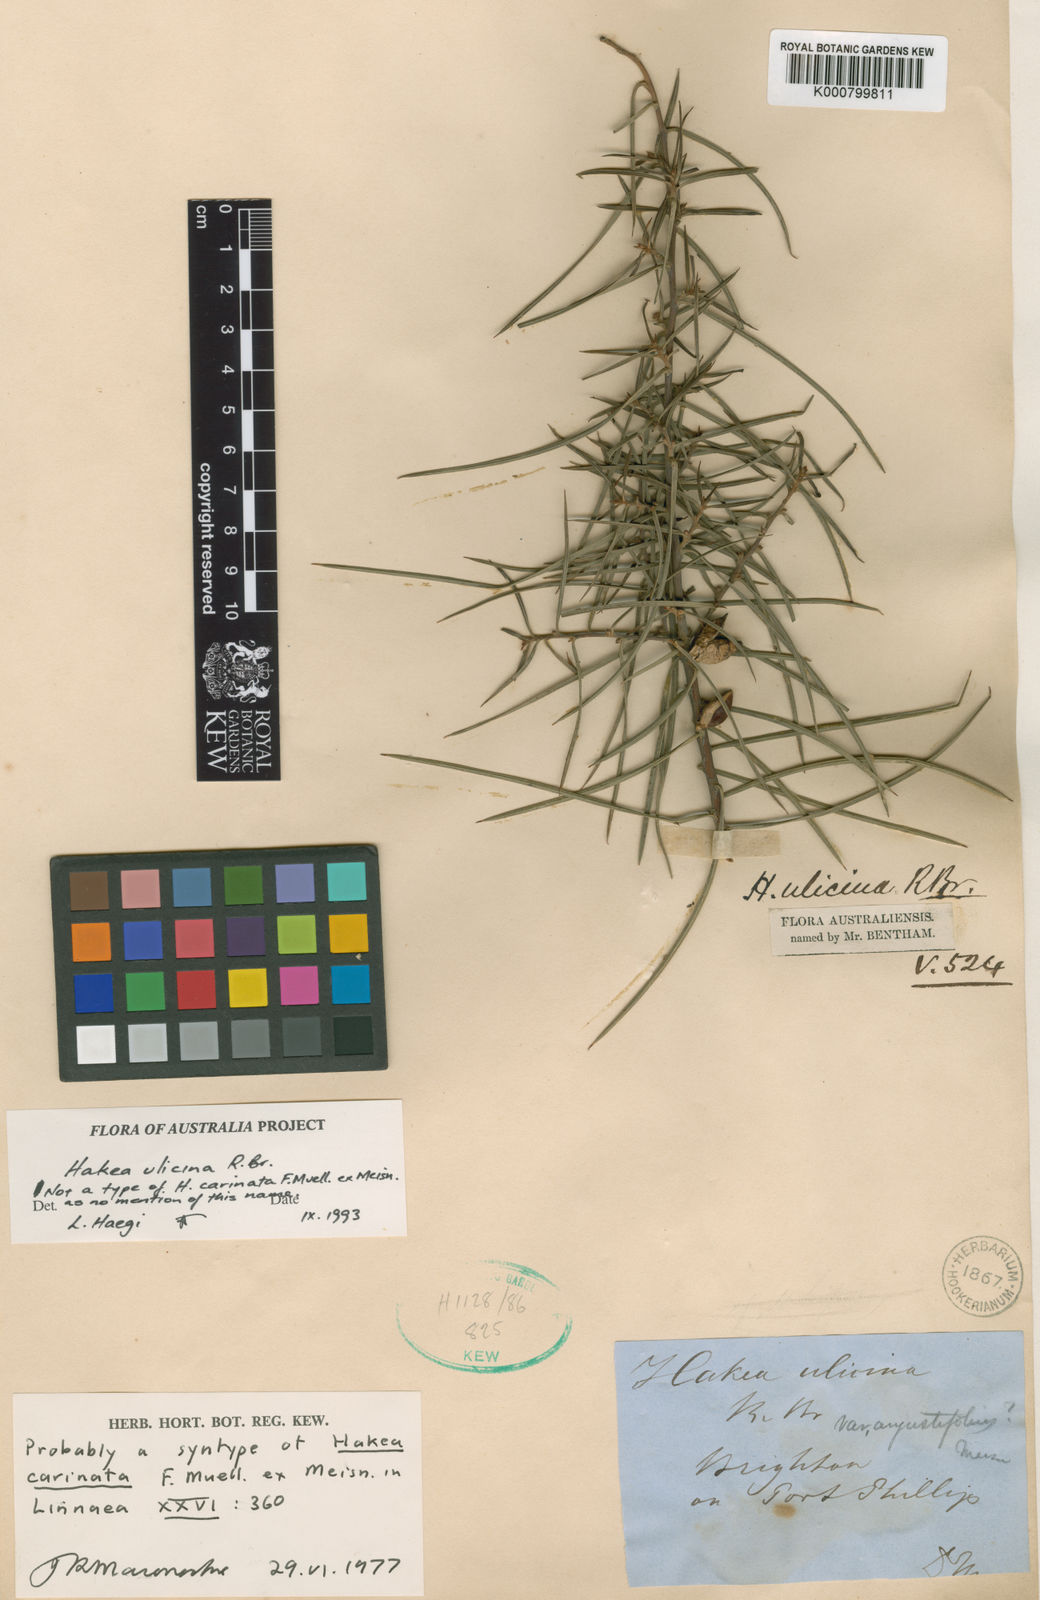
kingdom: Plantae
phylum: Tracheophyta
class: Magnoliopsida
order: Proteales
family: Proteaceae
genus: Hakea
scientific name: Hakea carinata
